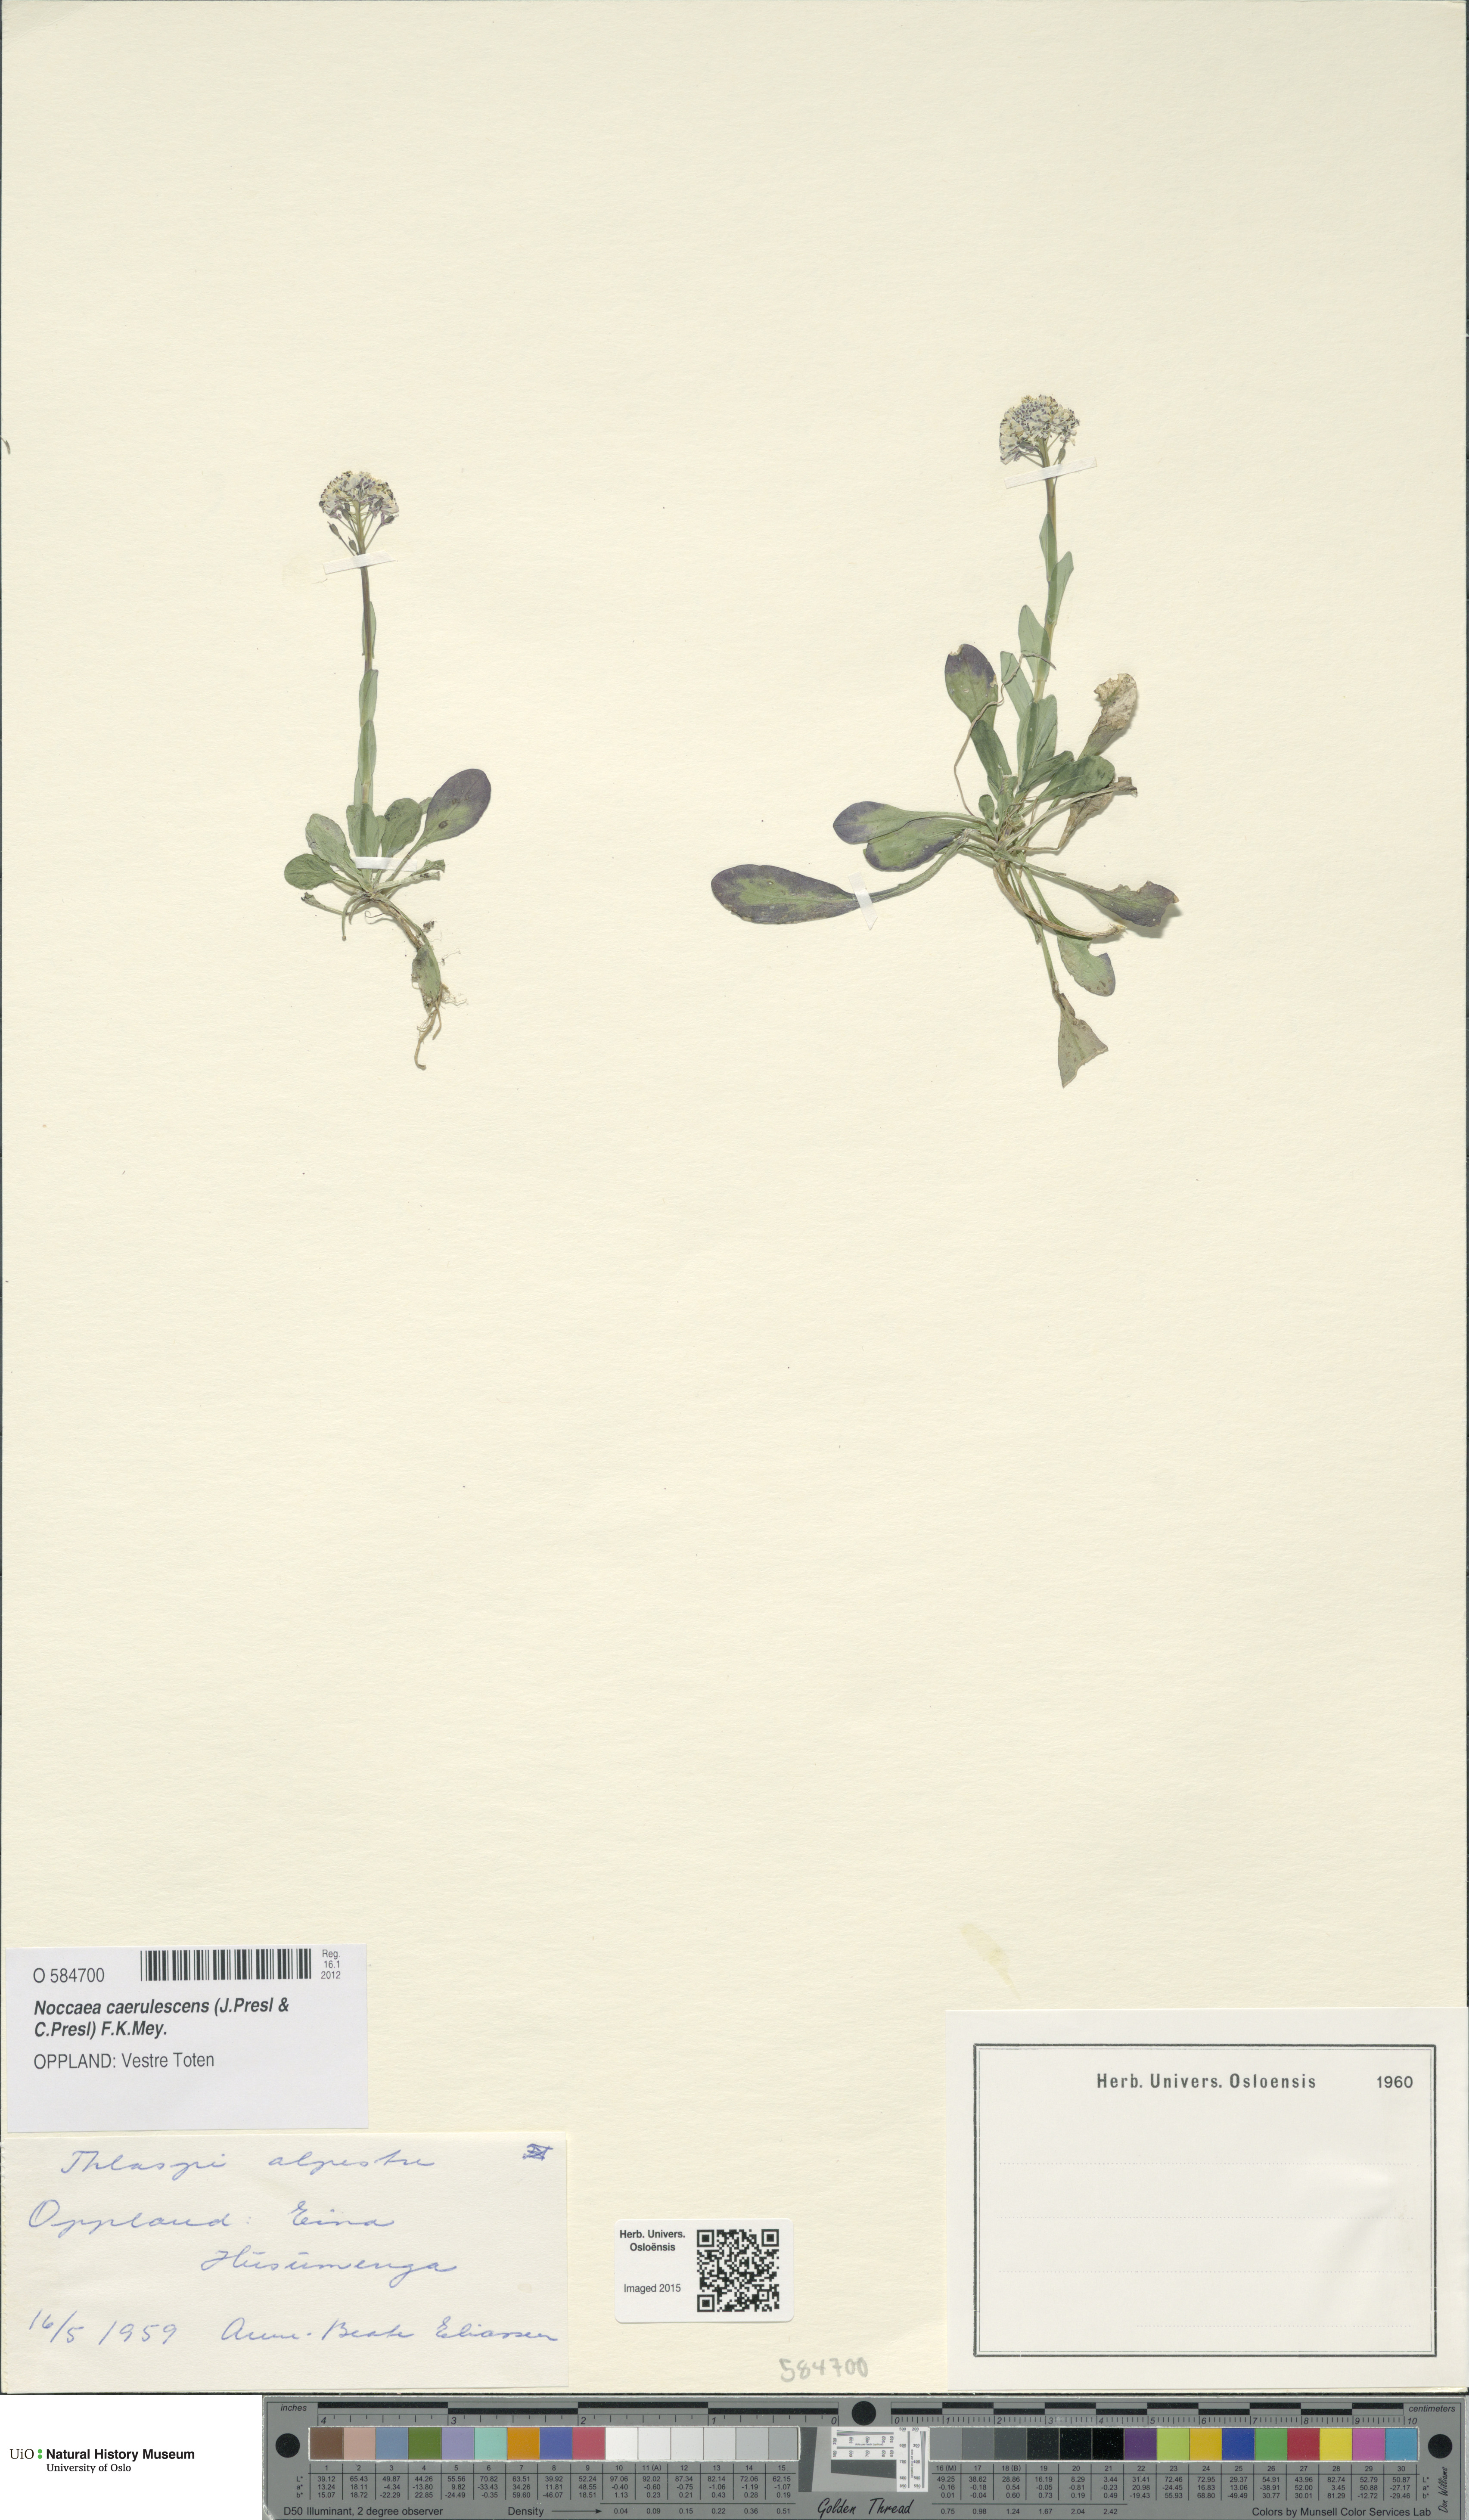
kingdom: Plantae
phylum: Tracheophyta
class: Magnoliopsida
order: Brassicales
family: Brassicaceae
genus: Noccaea
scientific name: Noccaea caerulescens
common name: Alpine pennycress
